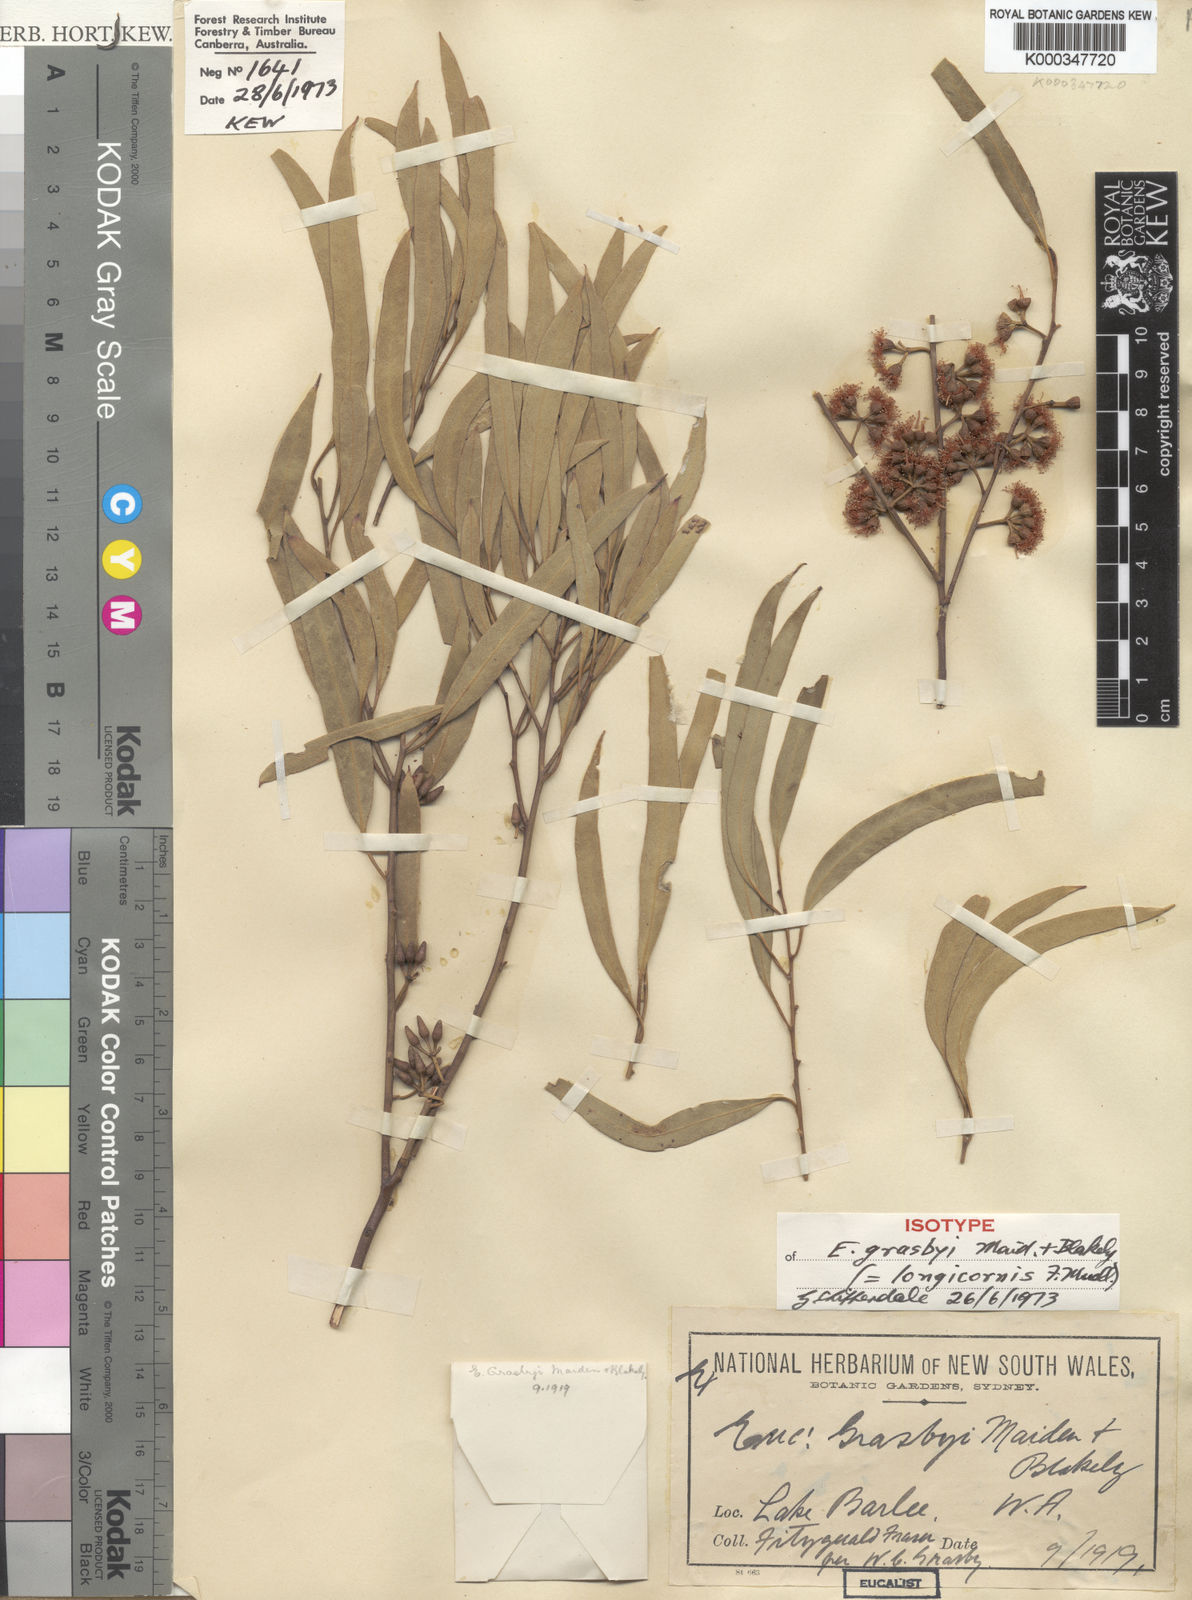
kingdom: Plantae
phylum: Tracheophyta
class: Magnoliopsida
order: Myrtales
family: Myrtaceae
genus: Eucalyptus
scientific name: Eucalyptus longicornis
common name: Red morrel
